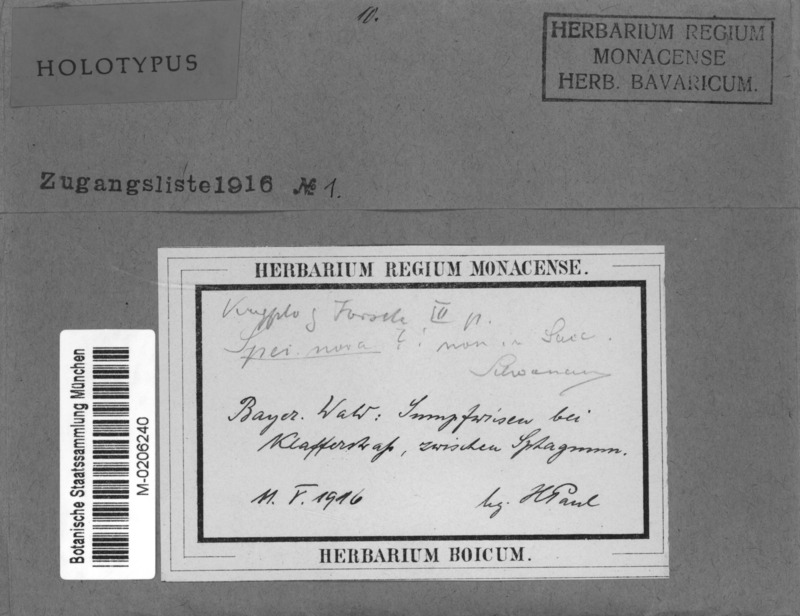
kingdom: Fungi
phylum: Ascomycota
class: Leotiomycetes
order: Helotiales
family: Bryoglossaceae
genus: Bryoglossum
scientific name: Bryoglossum rehmii
